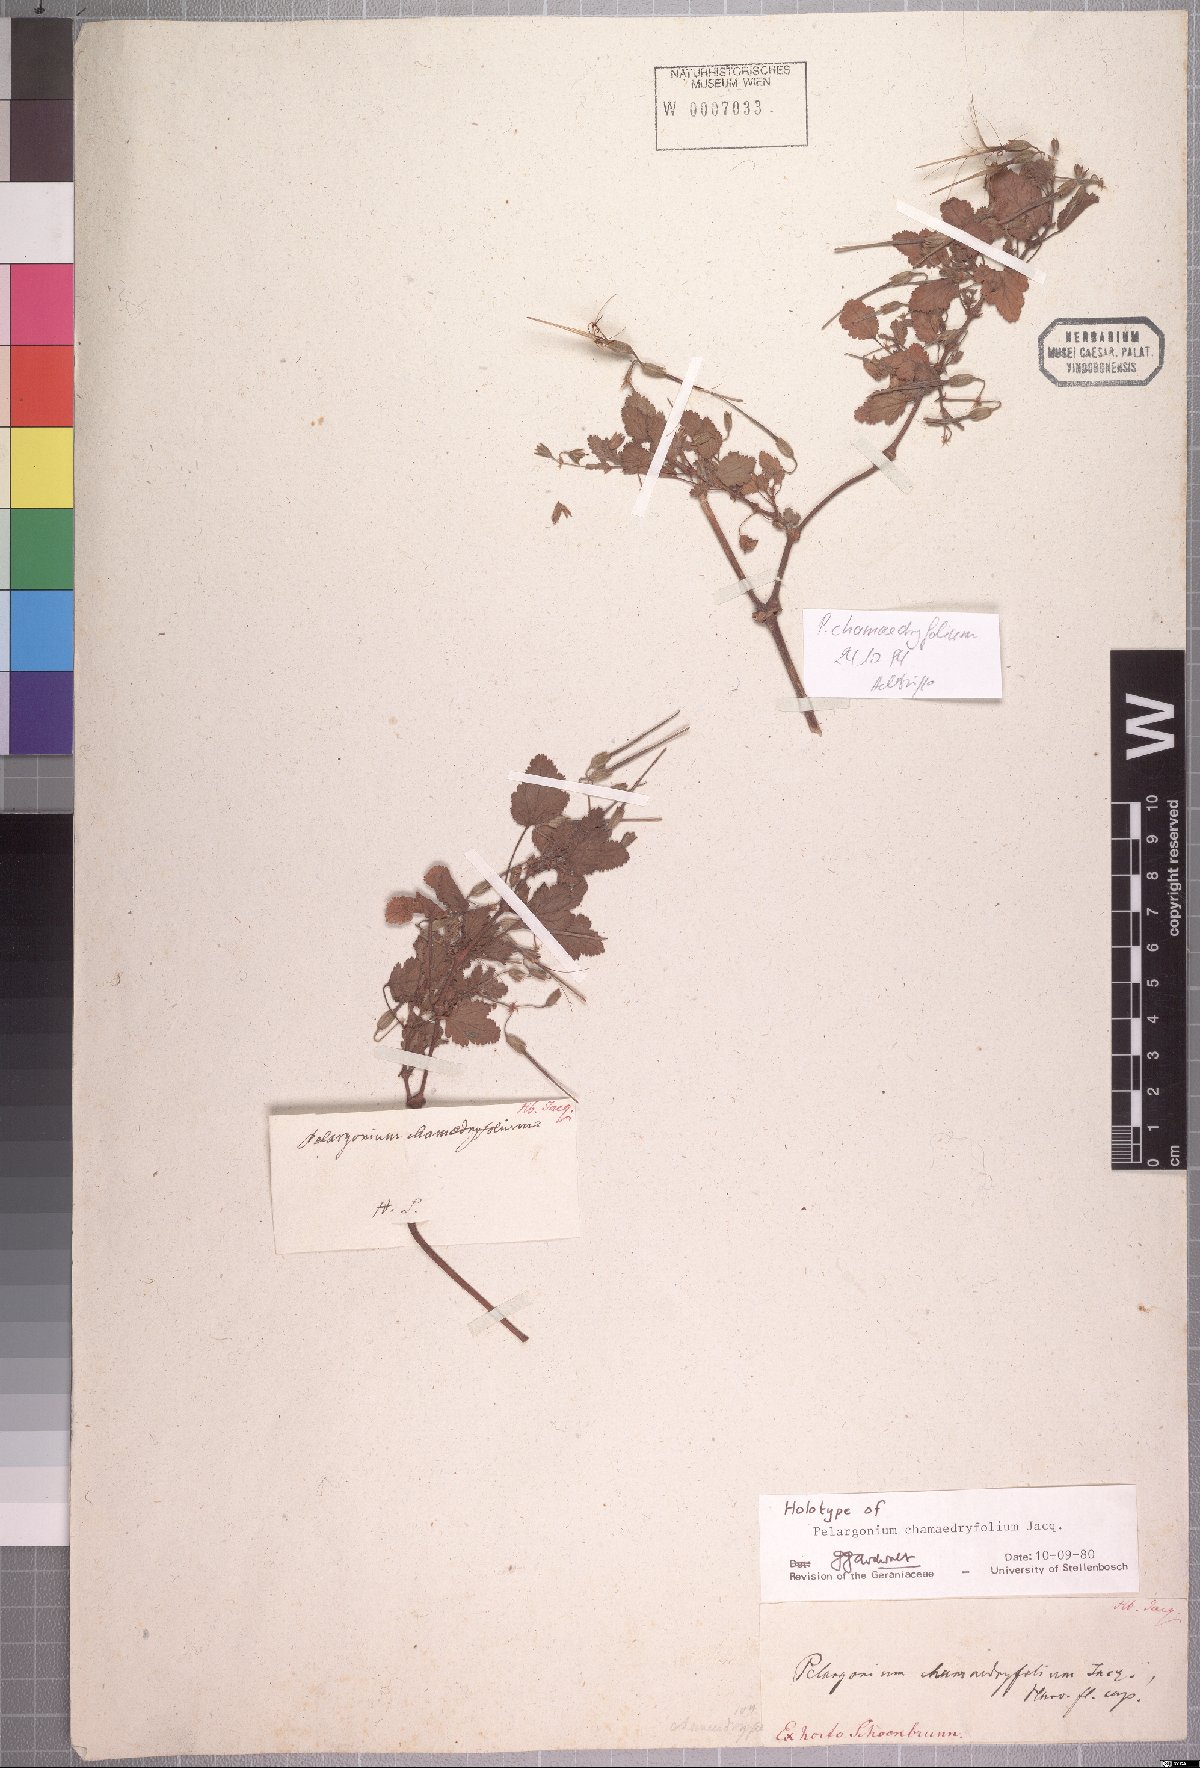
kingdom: Plantae
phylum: Tracheophyta
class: Magnoliopsida
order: Geraniales
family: Geraniaceae
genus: Pelargonium
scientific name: Pelargonium chamaedryfolium
